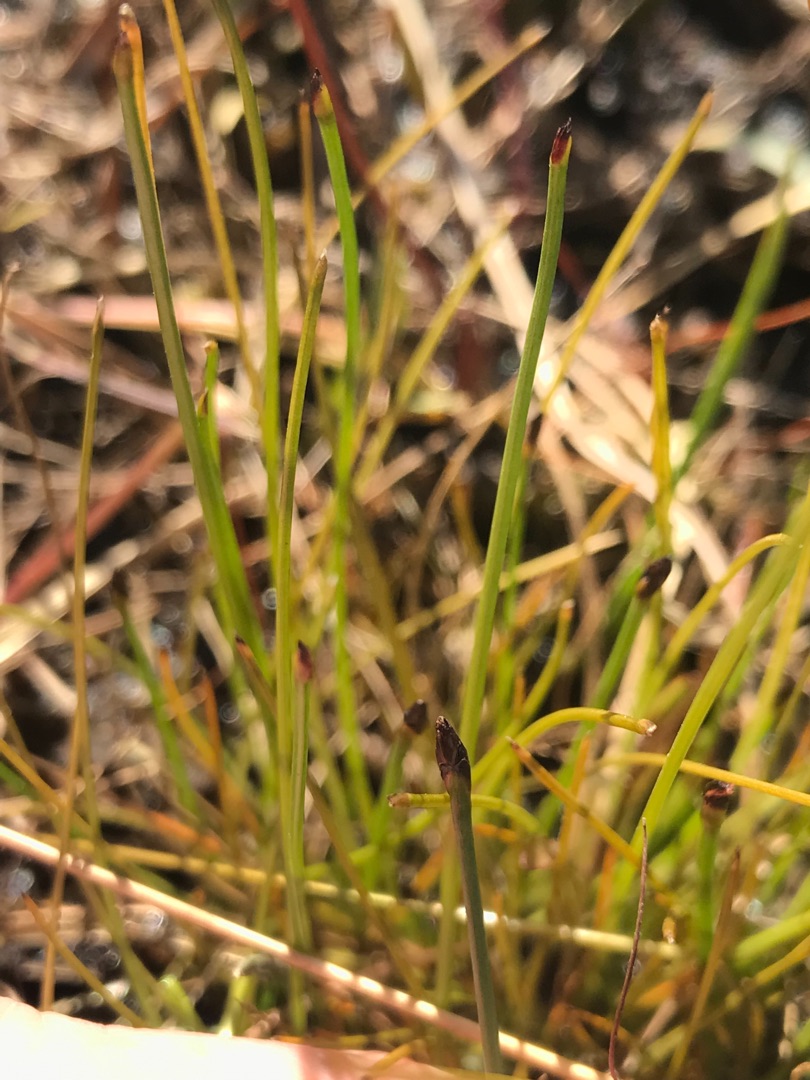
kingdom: Plantae
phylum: Tracheophyta
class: Liliopsida
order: Poales
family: Cyperaceae
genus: Eleocharis
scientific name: Eleocharis multicaulis
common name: Mangestænglet sumpstrå
